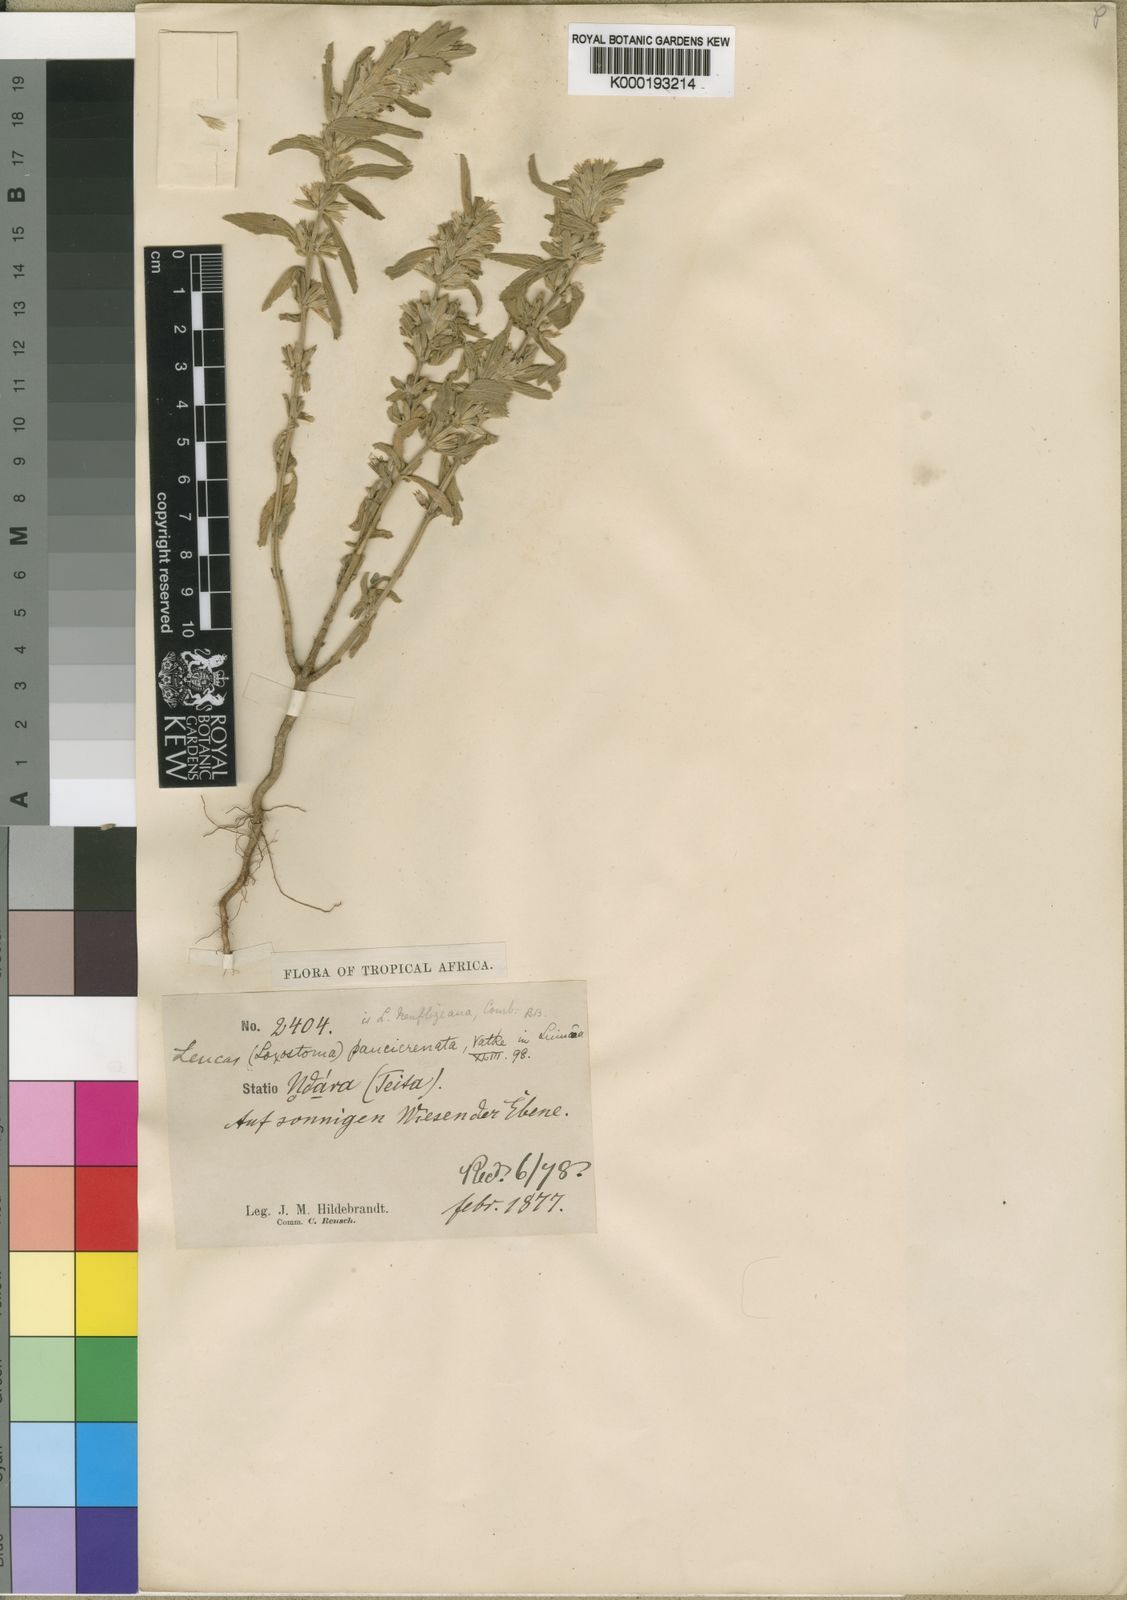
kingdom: Plantae
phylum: Tracheophyta
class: Magnoliopsida
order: Lamiales
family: Lamiaceae
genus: Leucas
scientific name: Leucas neuflizeana
